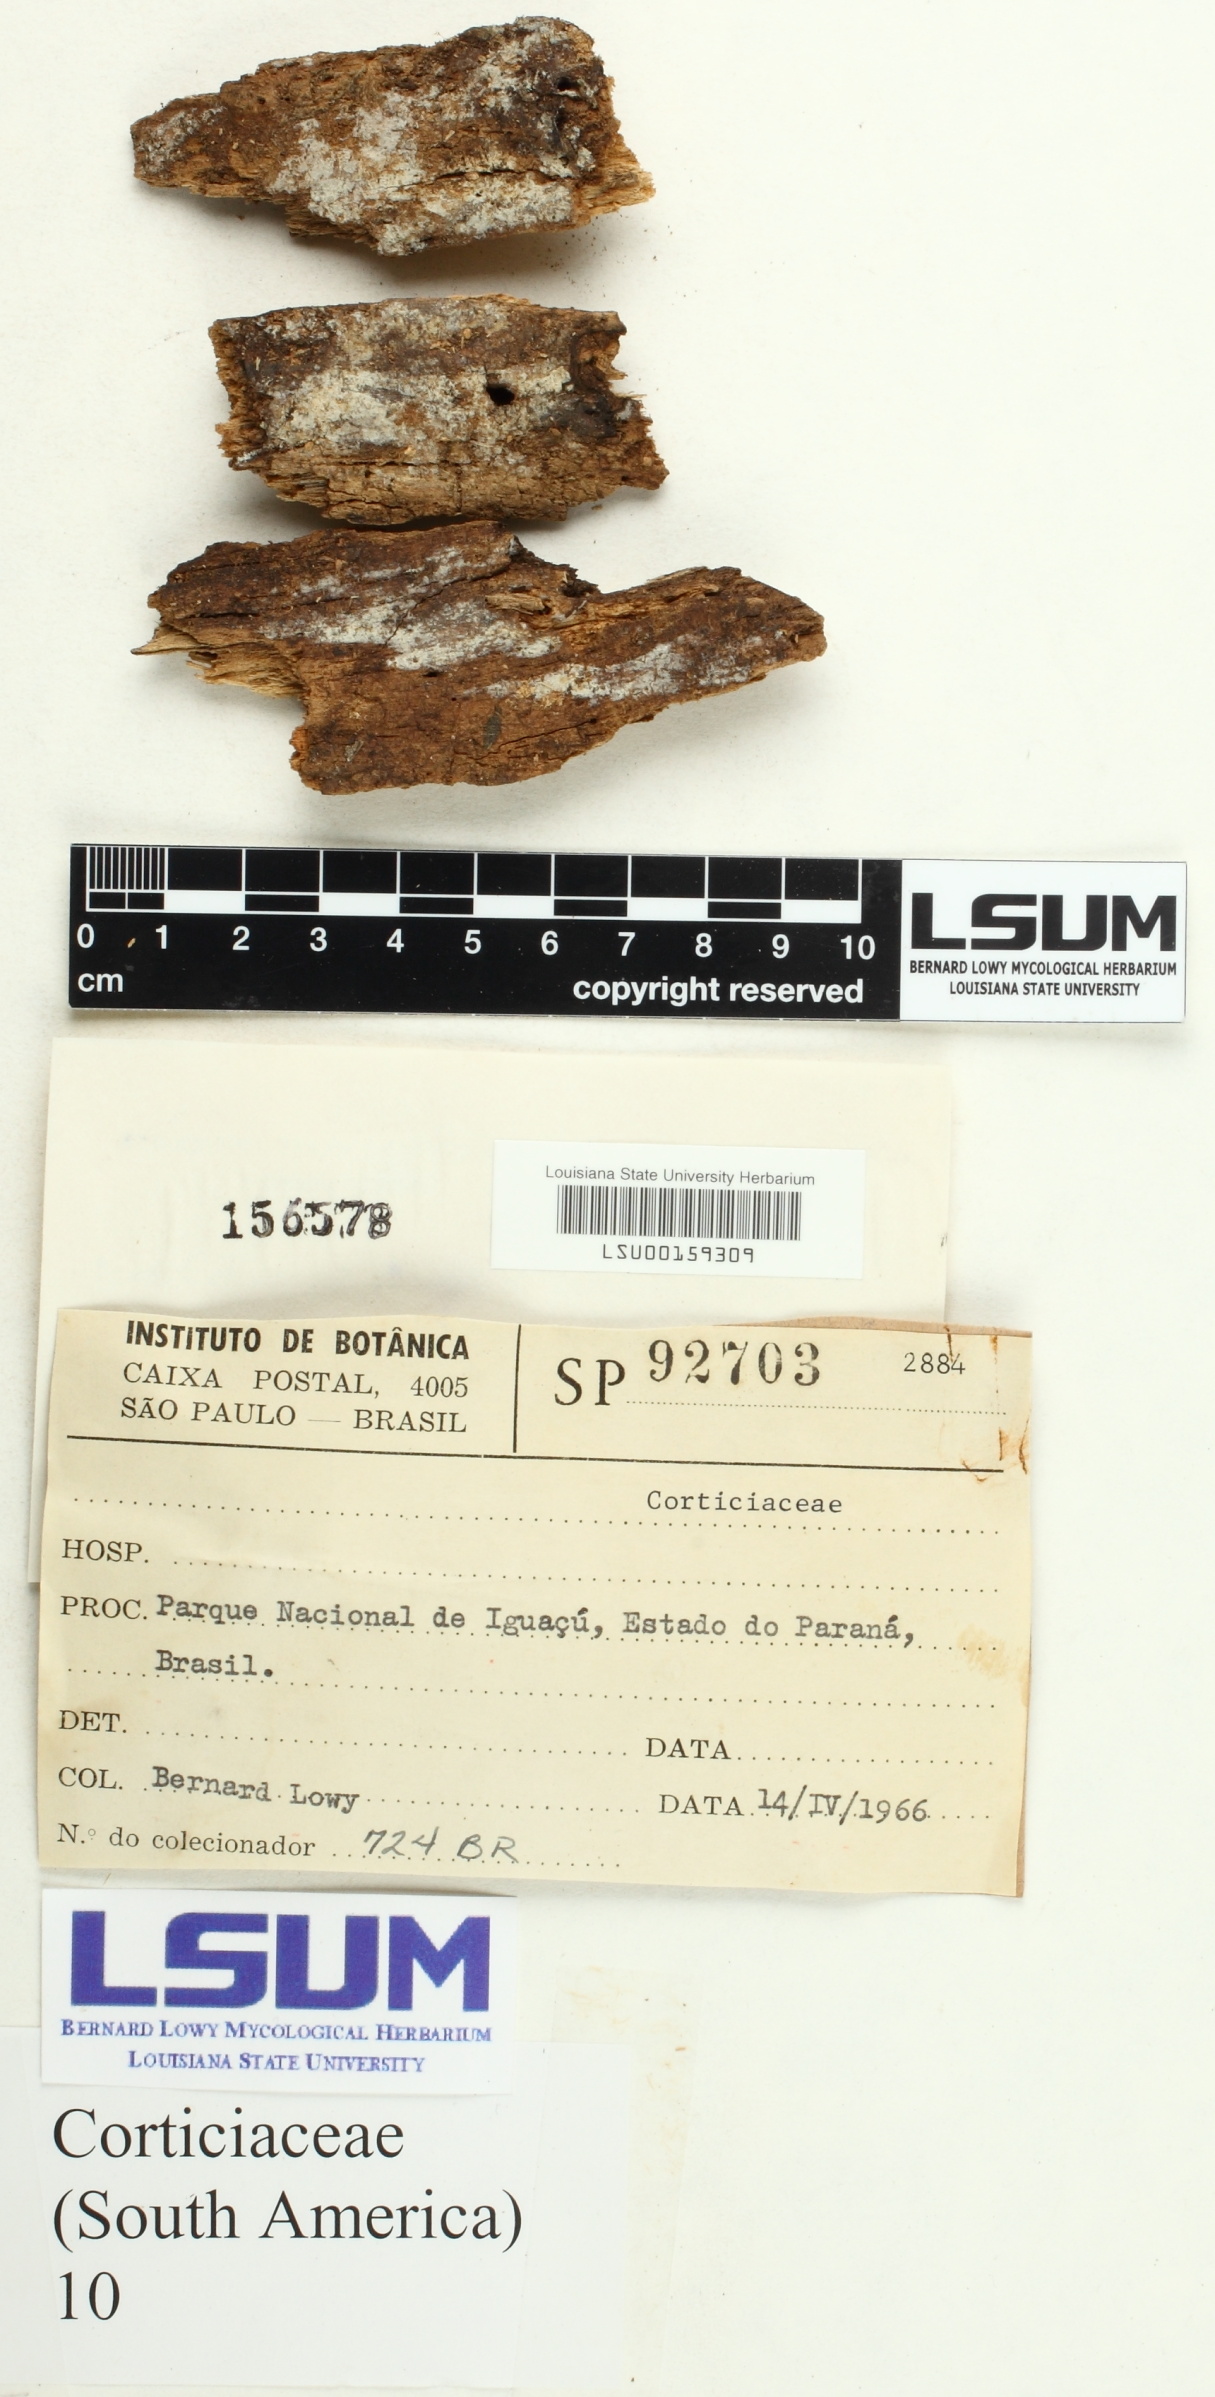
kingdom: Fungi
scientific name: Fungi
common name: Fungi
